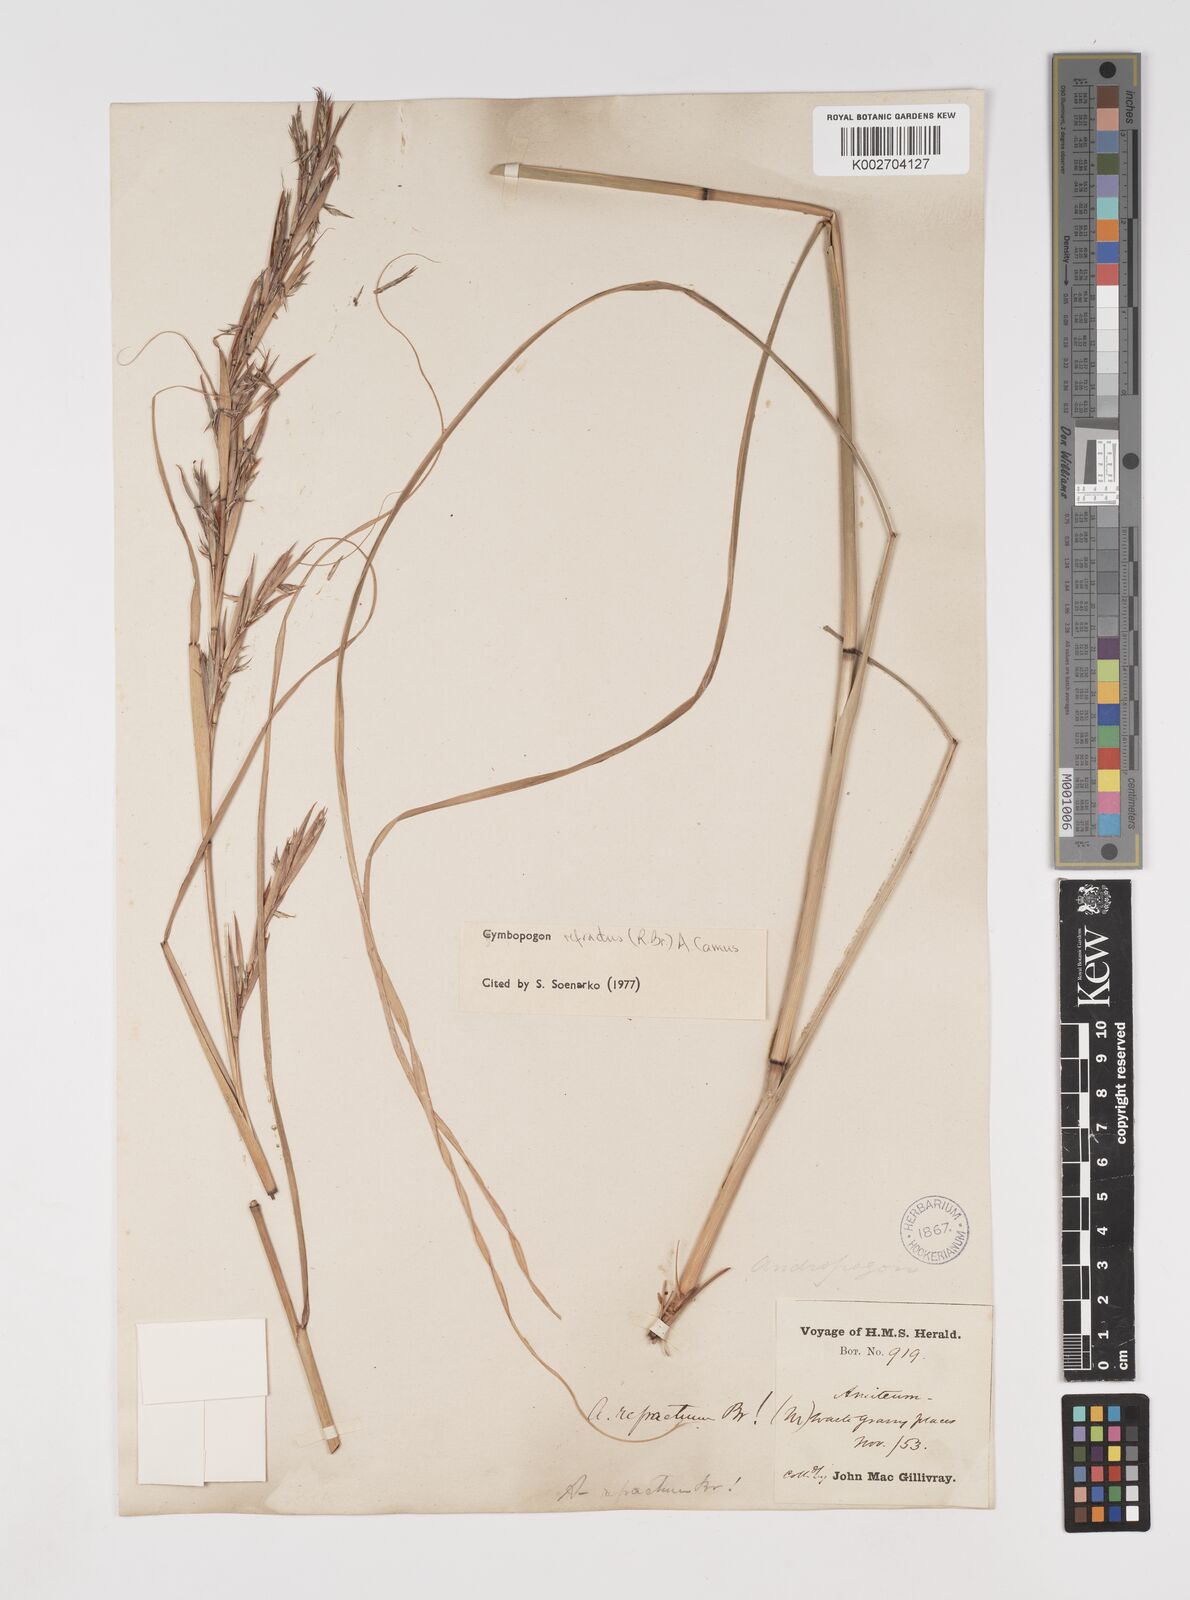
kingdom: Plantae
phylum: Tracheophyta
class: Liliopsida
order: Poales
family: Poaceae
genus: Cymbopogon
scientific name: Cymbopogon refractus
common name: Barbwire grass
